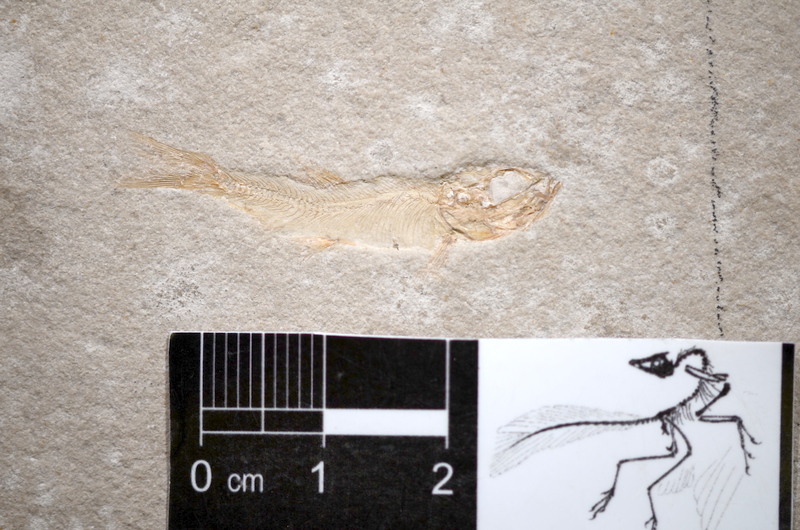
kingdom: Animalia
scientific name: Animalia
